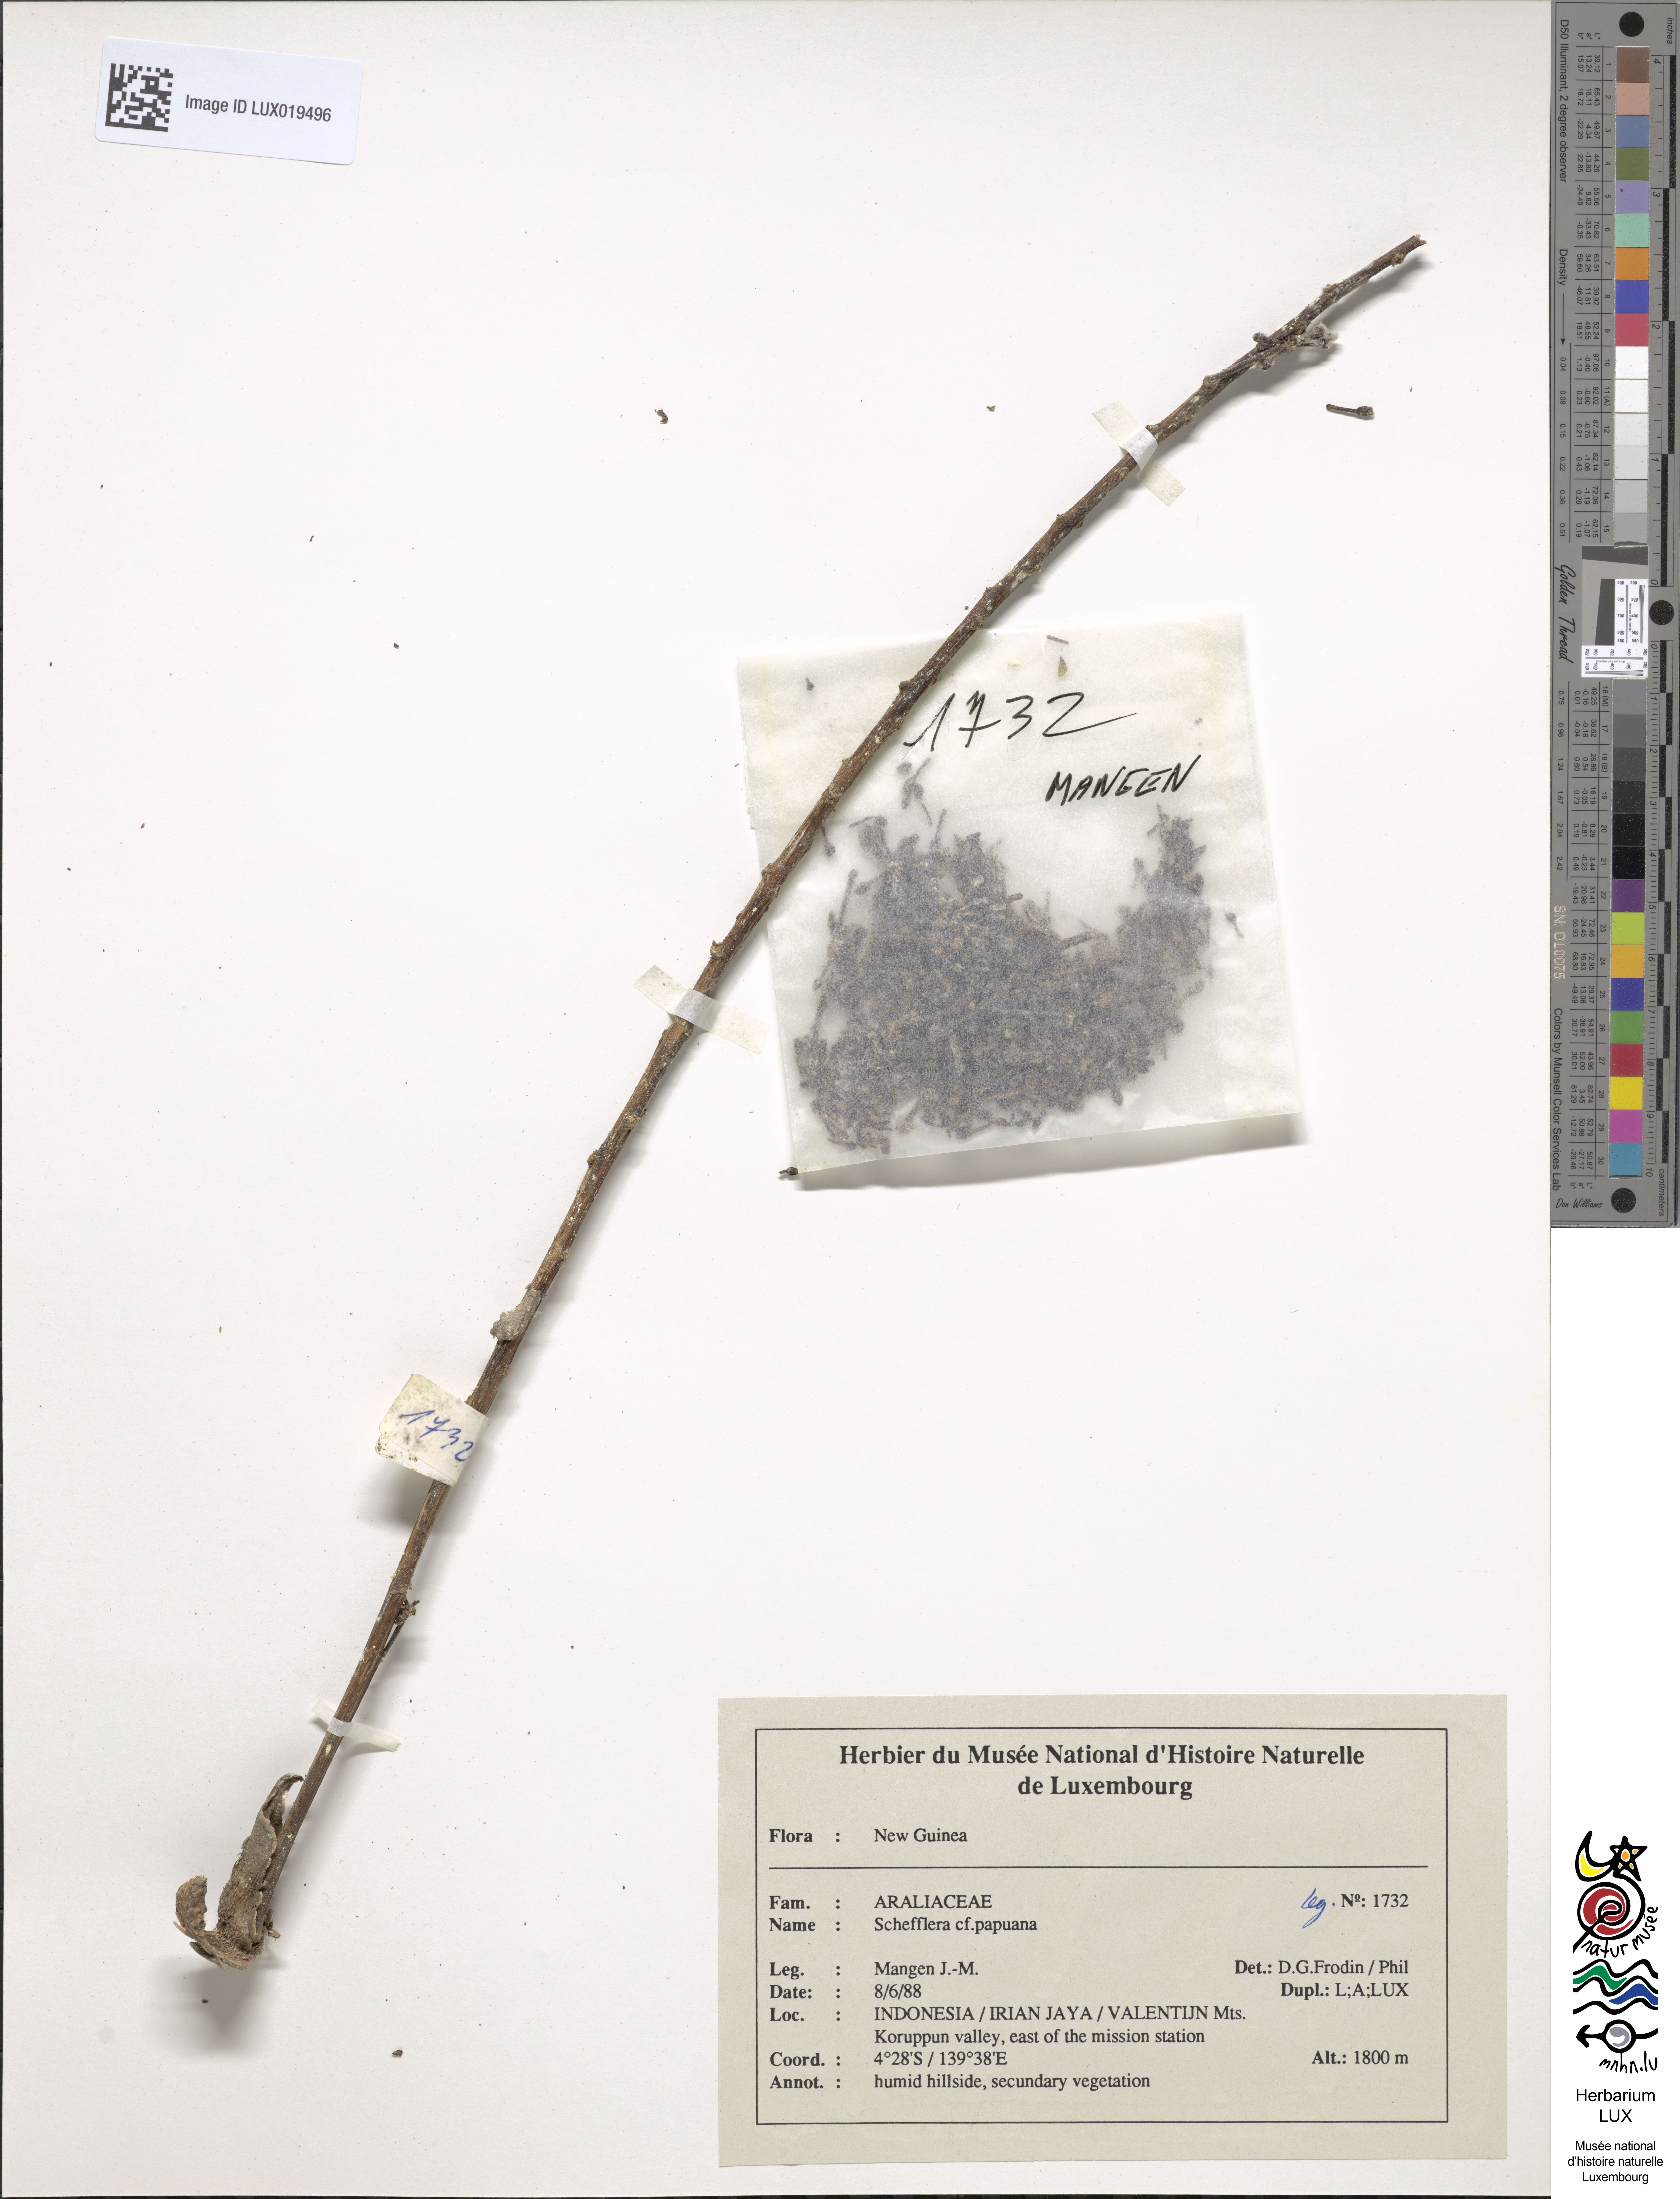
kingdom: Plantae
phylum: Tracheophyta
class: Magnoliopsida
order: Apiales
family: Araliaceae
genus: Heptapleurum
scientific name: Heptapleurum papuanum
